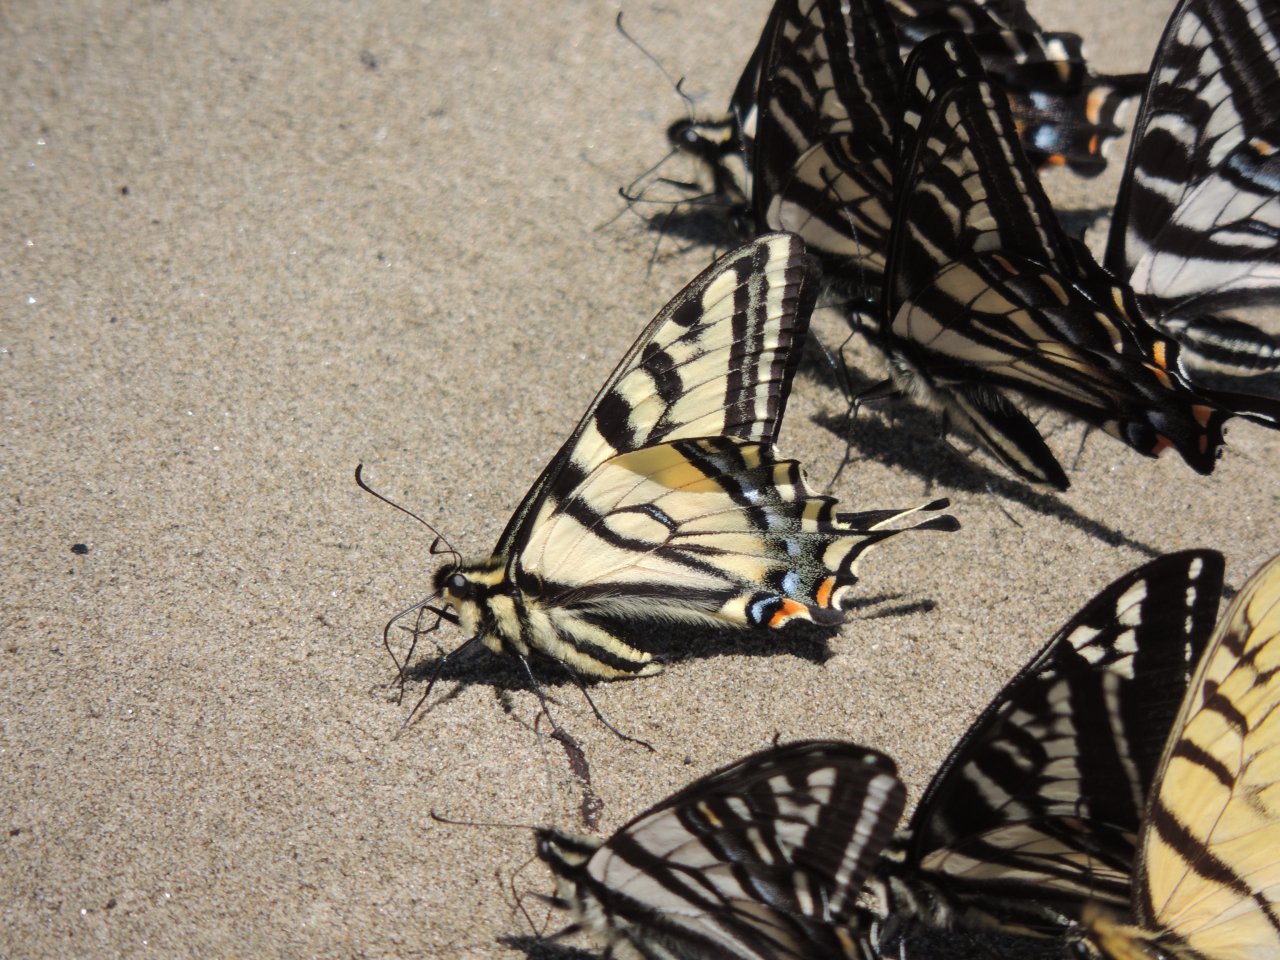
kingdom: Animalia
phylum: Arthropoda
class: Insecta
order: Lepidoptera
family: Papilionidae
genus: Pterourus
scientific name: Pterourus rutulus
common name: Western Tiger Swallowtail
